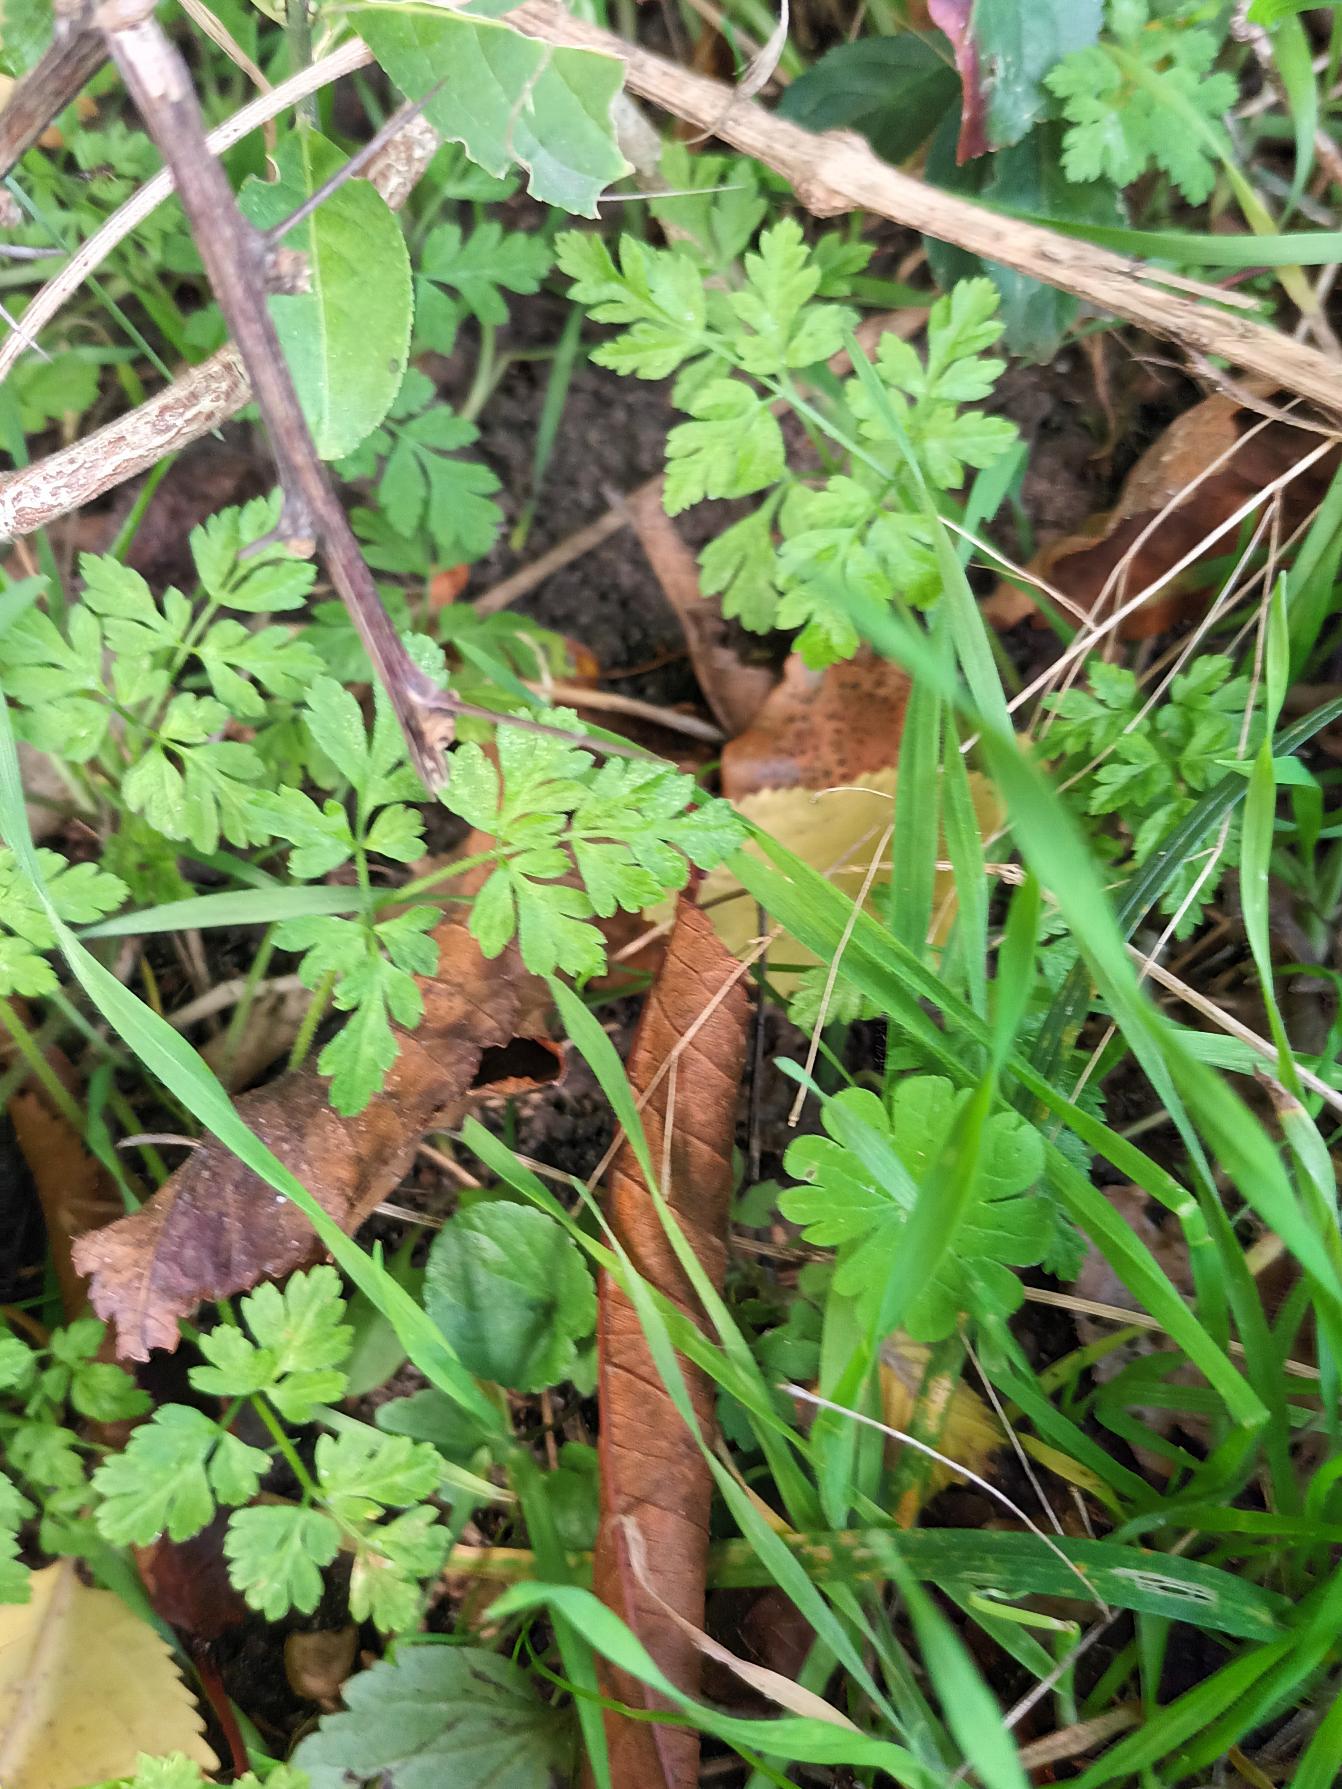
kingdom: Plantae
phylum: Tracheophyta
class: Magnoliopsida
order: Apiales
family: Apiaceae
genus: Chaerophyllum
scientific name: Chaerophyllum temulum
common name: Almindelig hulsvøb
